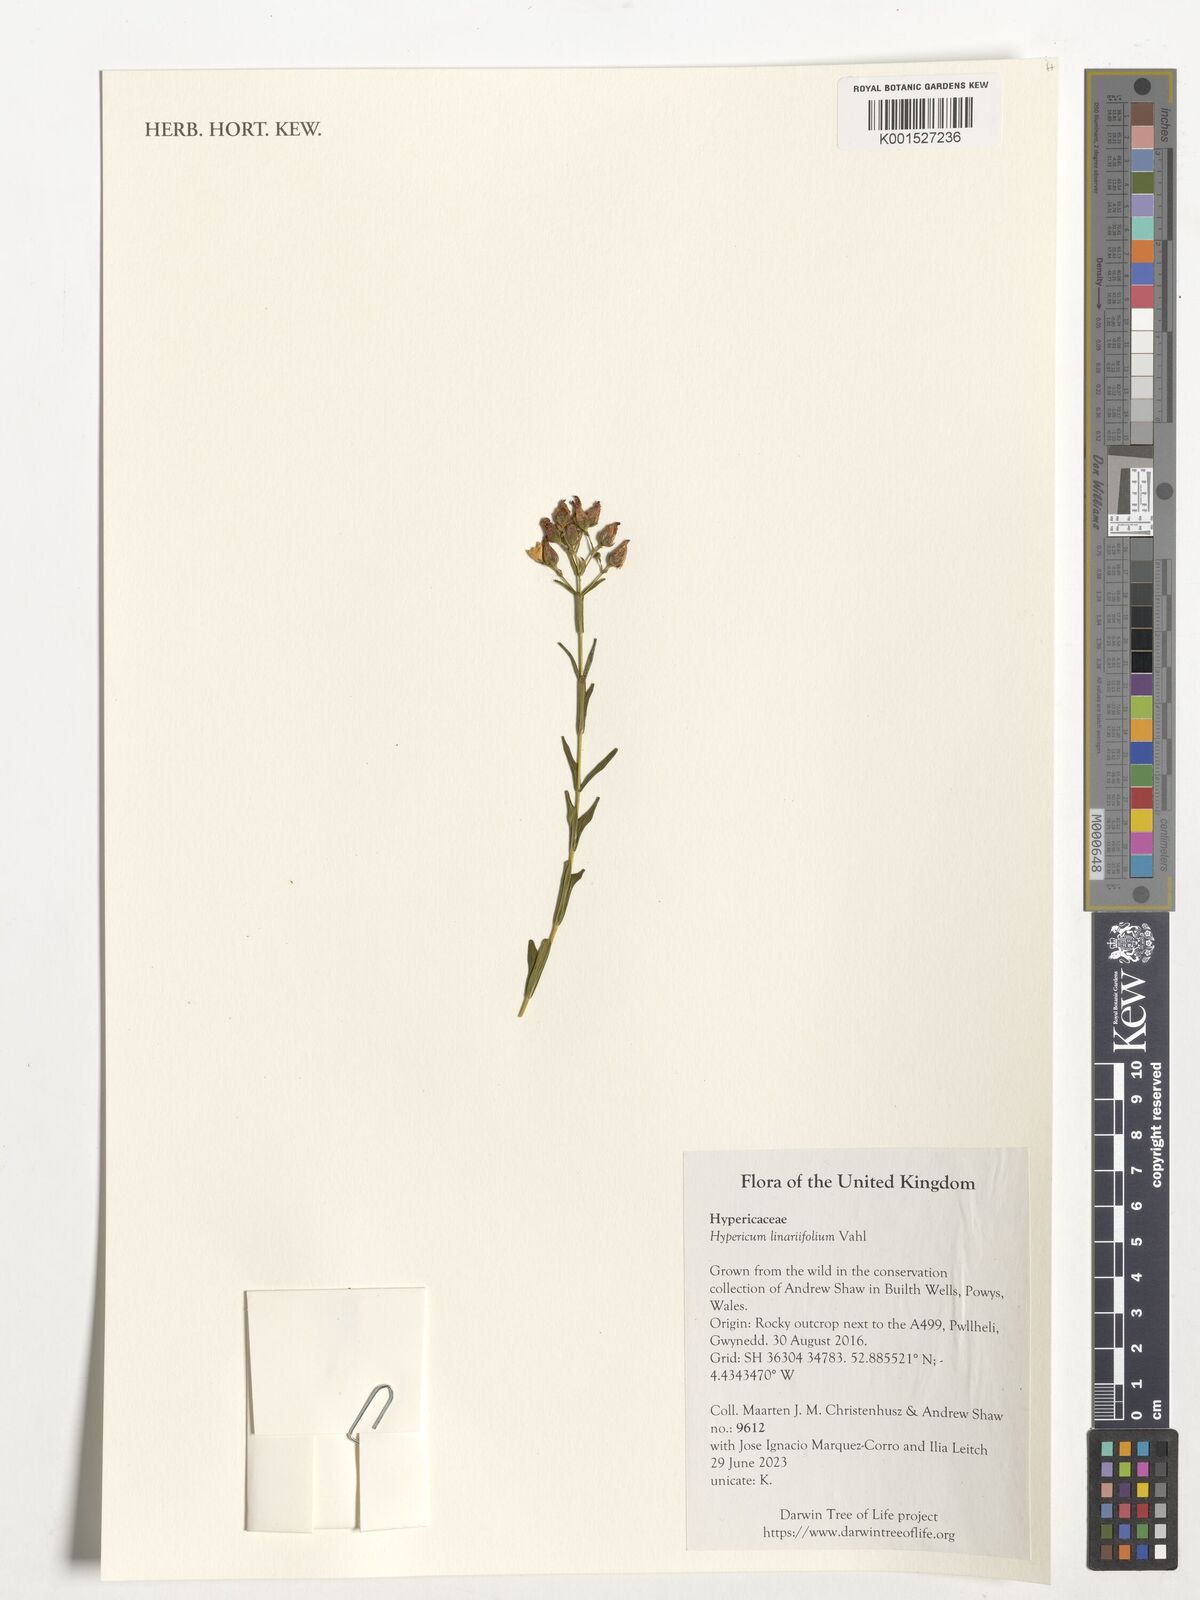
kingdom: Plantae
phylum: Tracheophyta
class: Magnoliopsida
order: Malpighiales
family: Hypericaceae
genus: Hypericum
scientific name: Hypericum linariifolium
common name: Toadflax-leaved st. john's-wort
